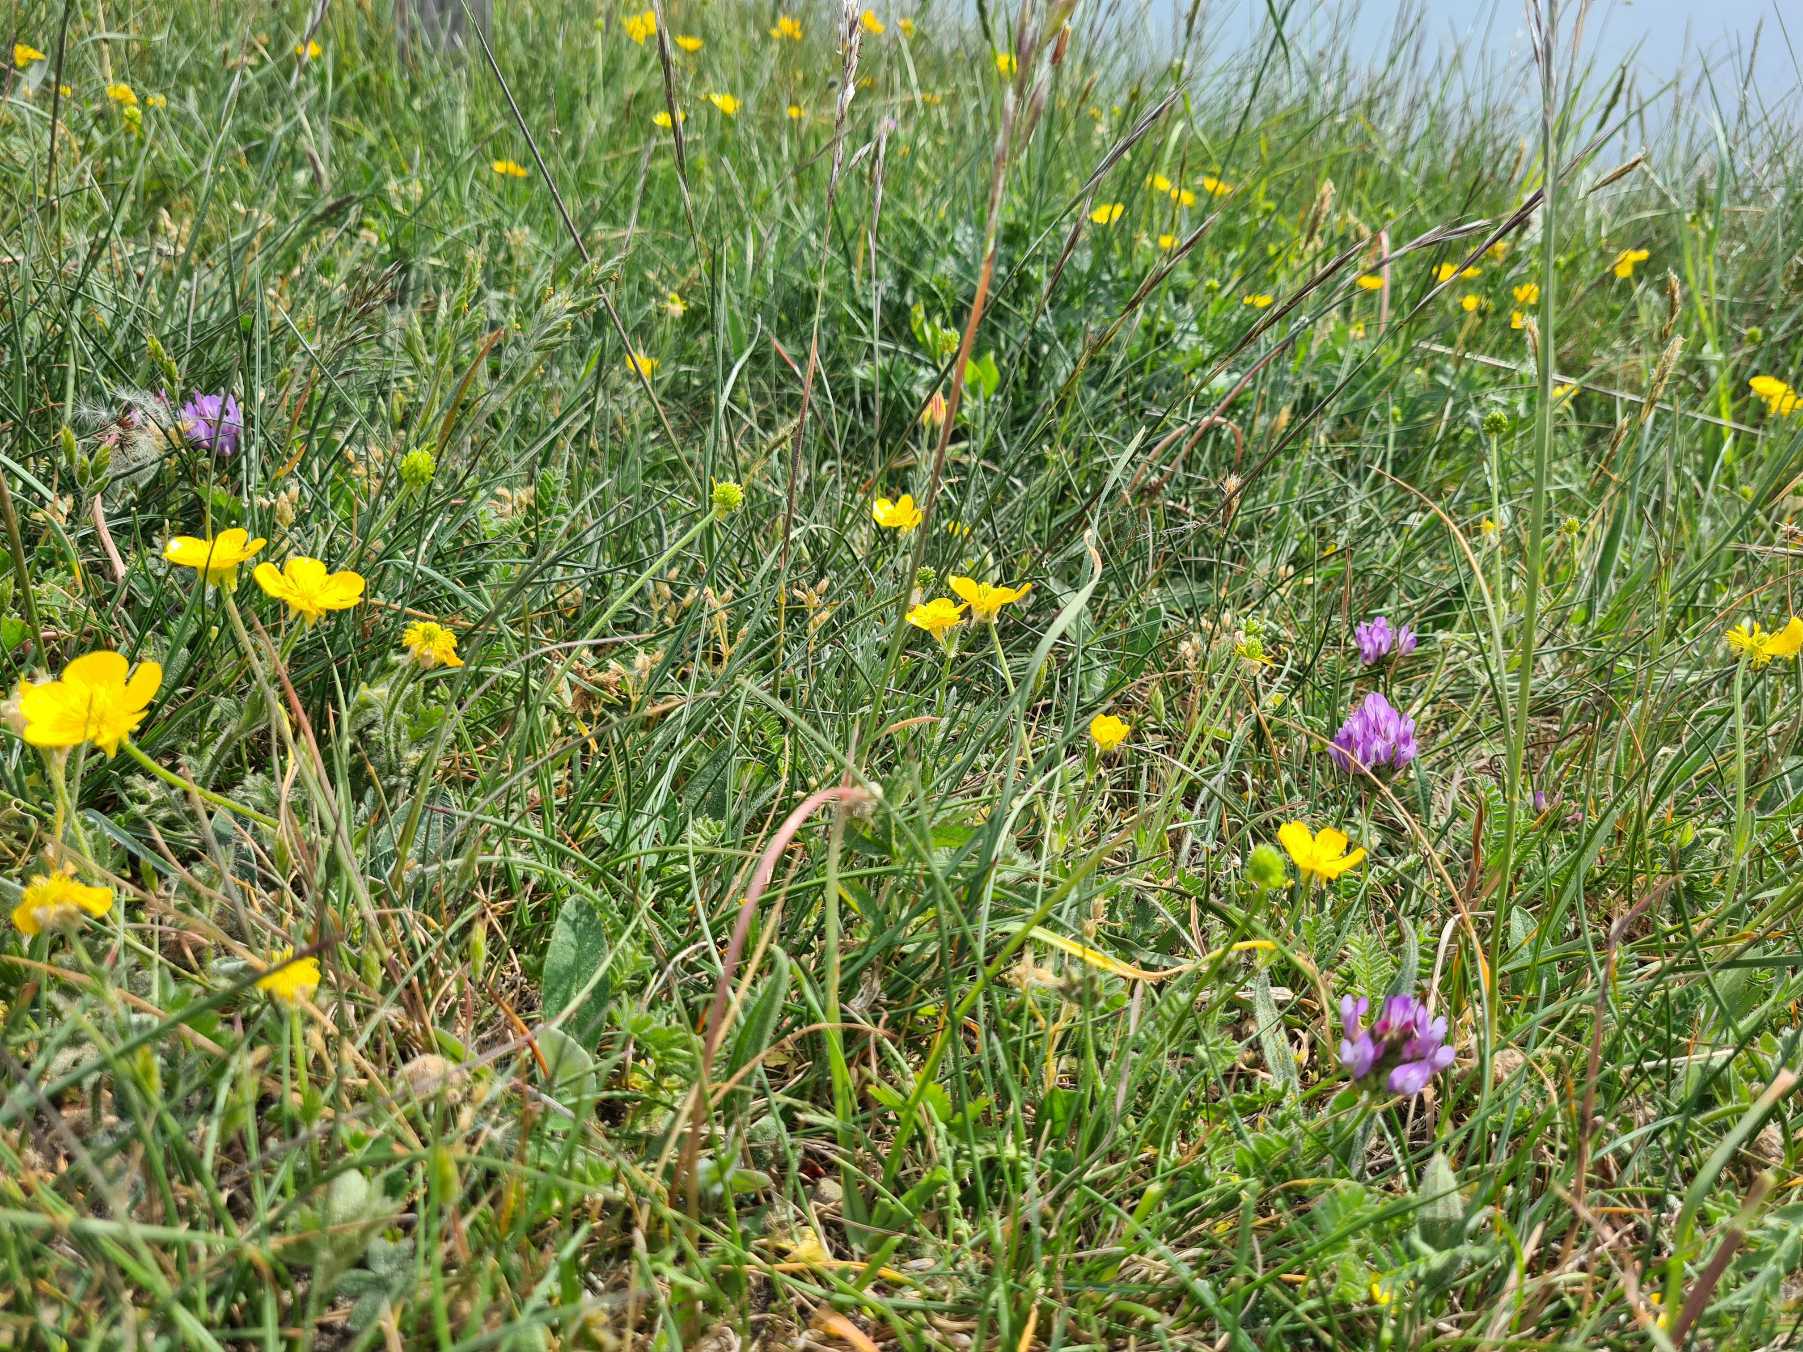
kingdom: Plantae
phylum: Tracheophyta
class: Magnoliopsida
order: Fabales
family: Fabaceae
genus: Astragalus
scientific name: Astragalus danicus
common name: Dansk astragel
